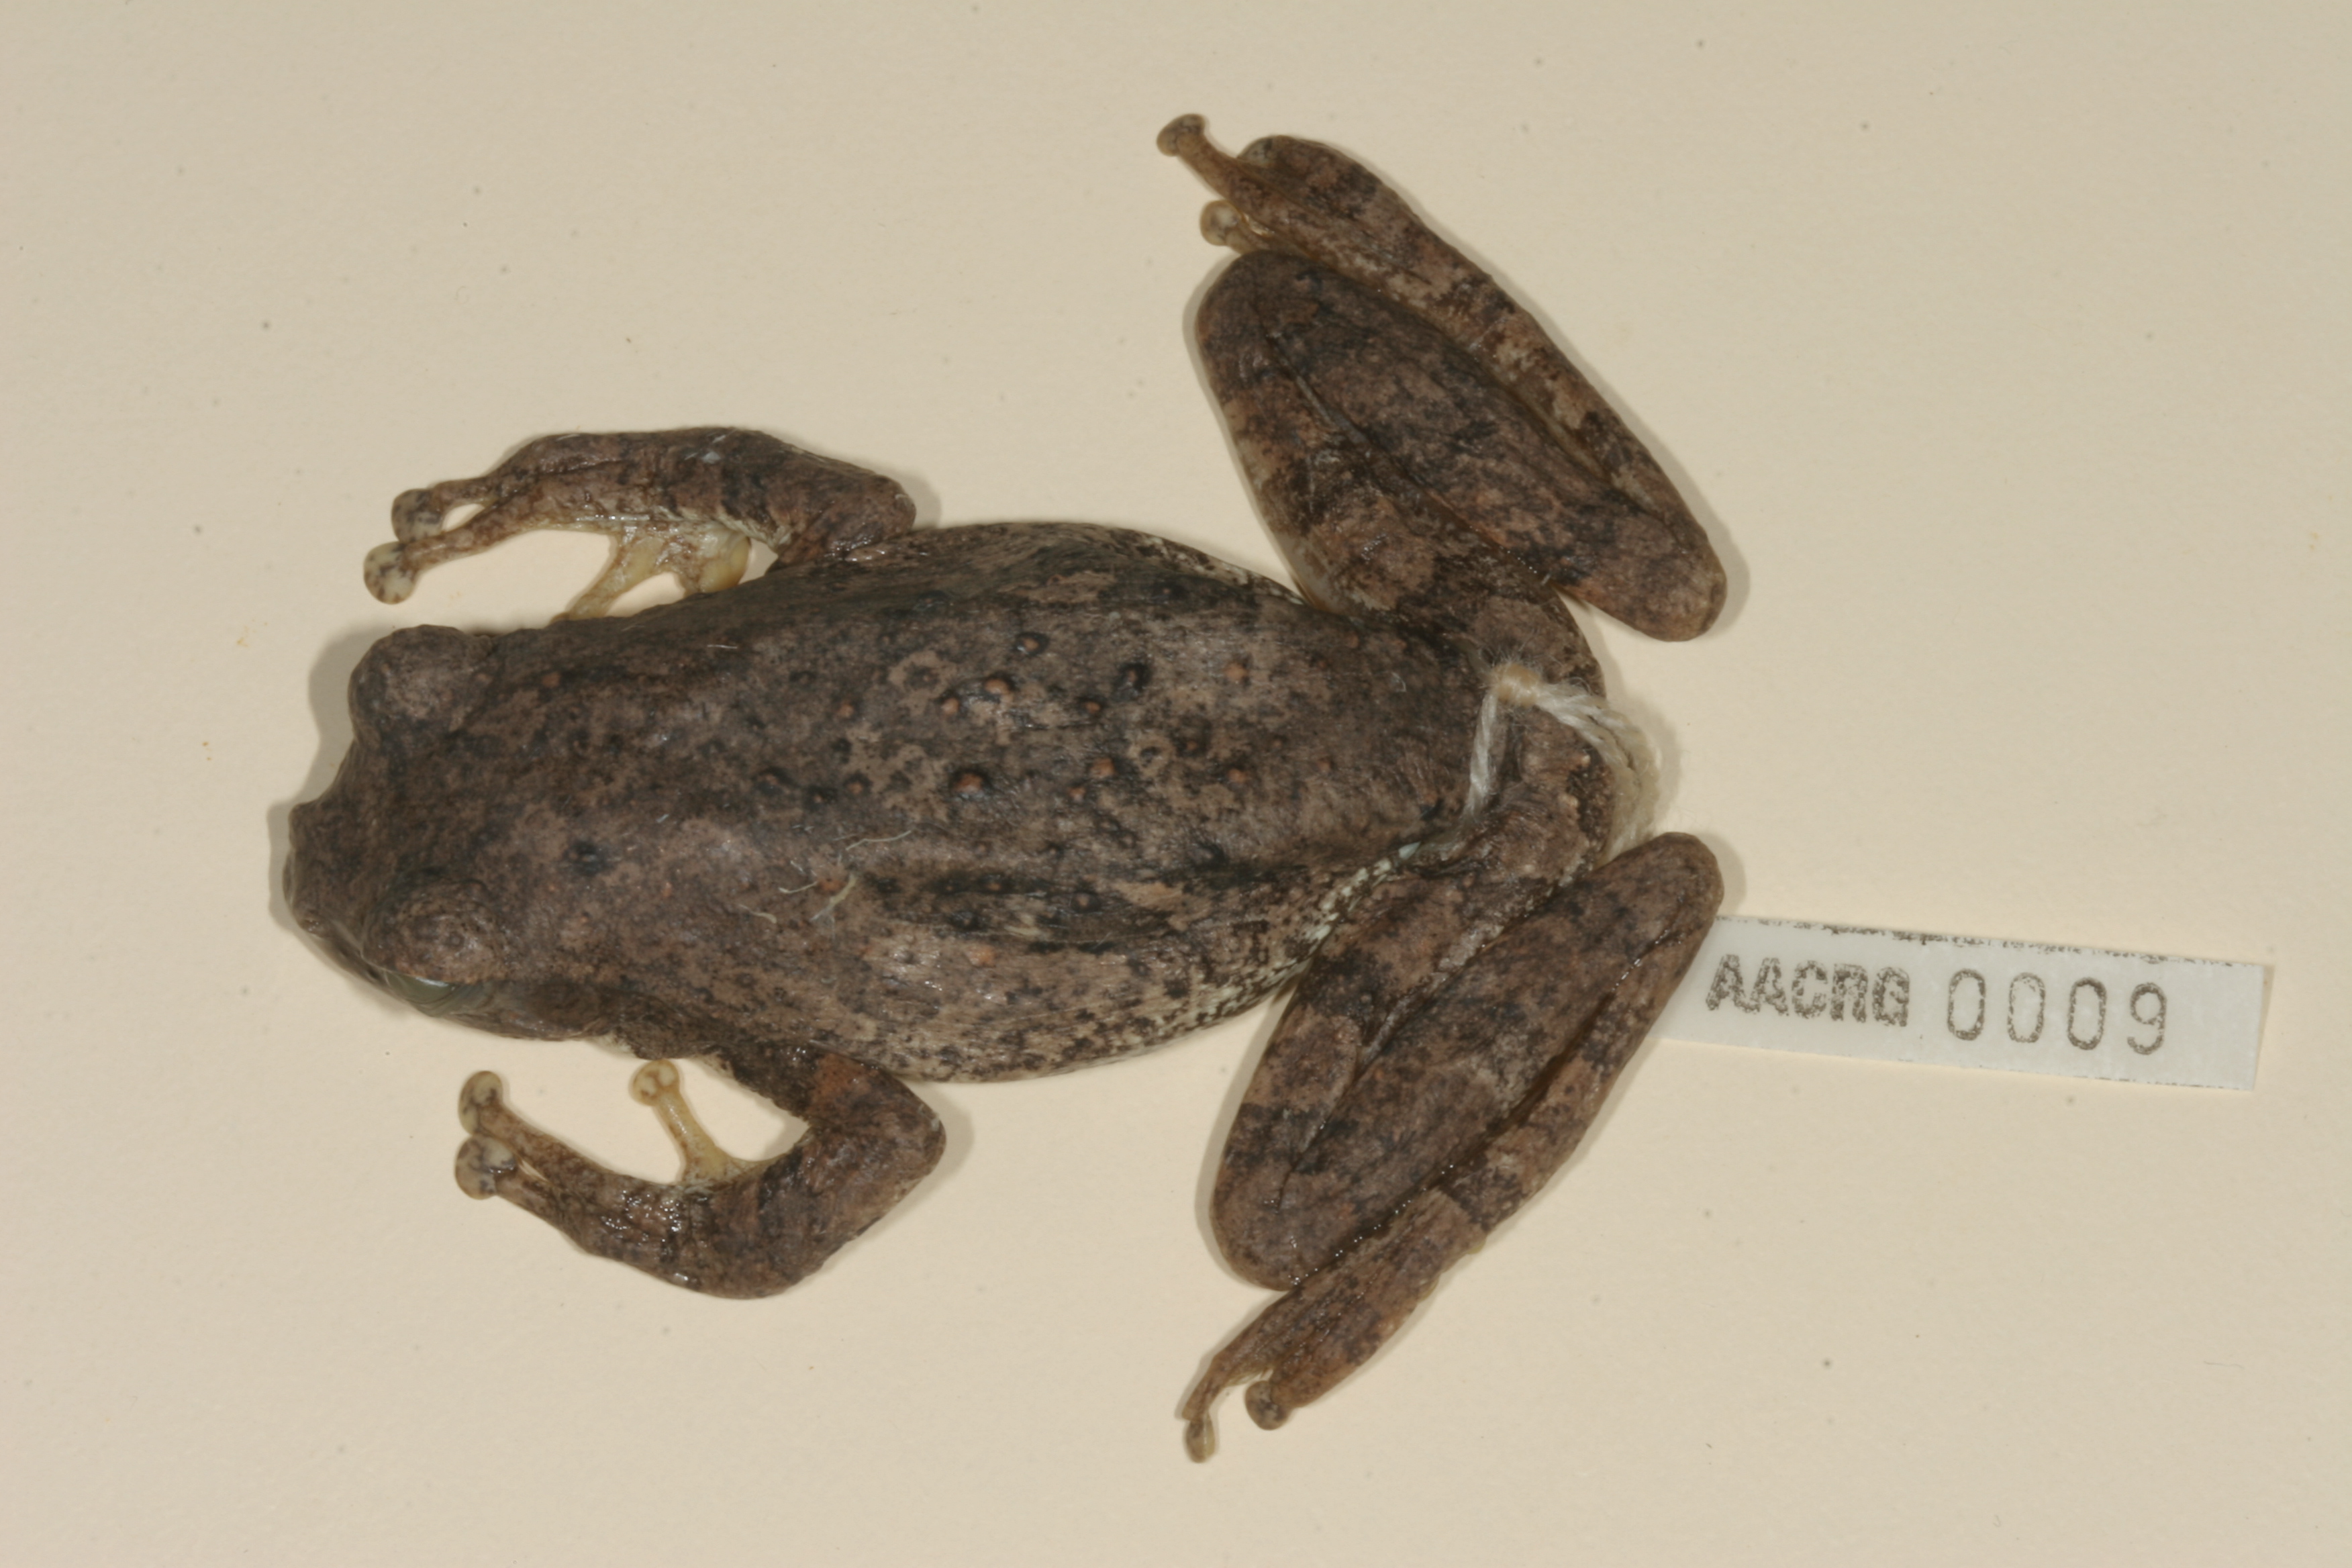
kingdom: Animalia
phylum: Chordata
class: Amphibia
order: Anura
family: Rhacophoridae
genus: Chiromantis
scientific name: Chiromantis xerampelina
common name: African gray treefrog
